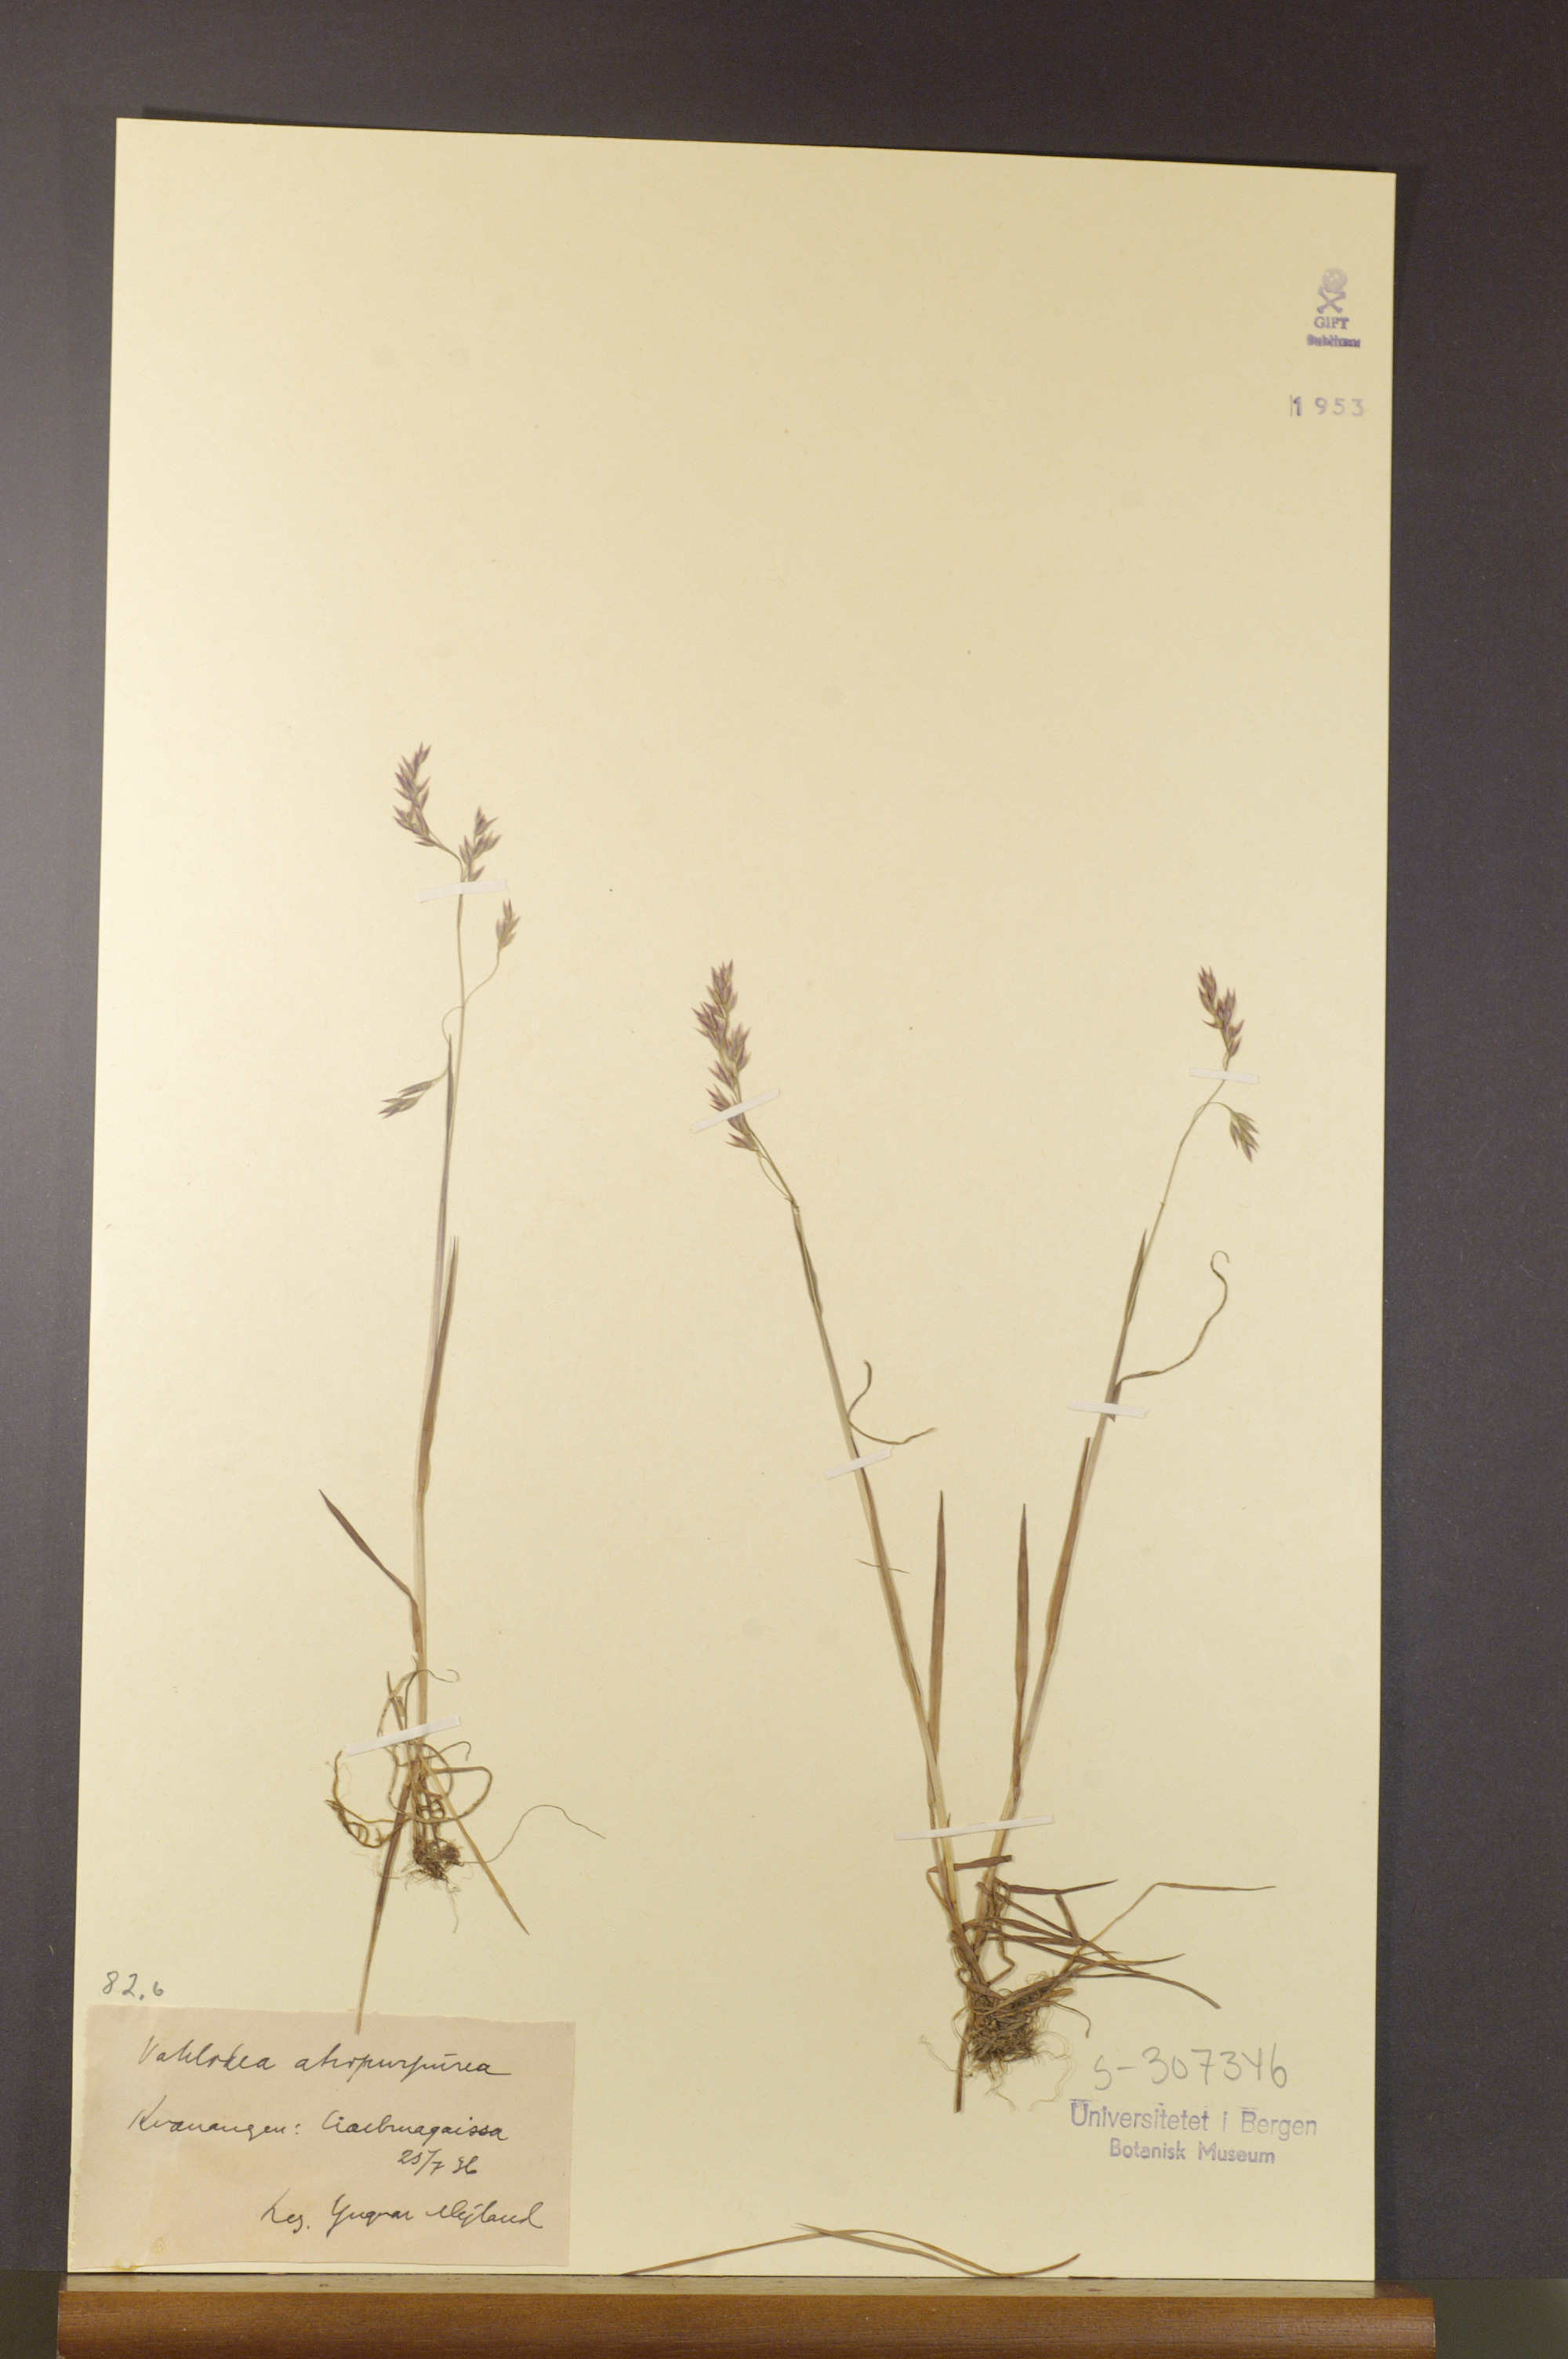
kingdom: Plantae
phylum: Tracheophyta
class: Liliopsida
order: Poales
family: Poaceae
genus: Vahlodea
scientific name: Vahlodea atropurpurea
